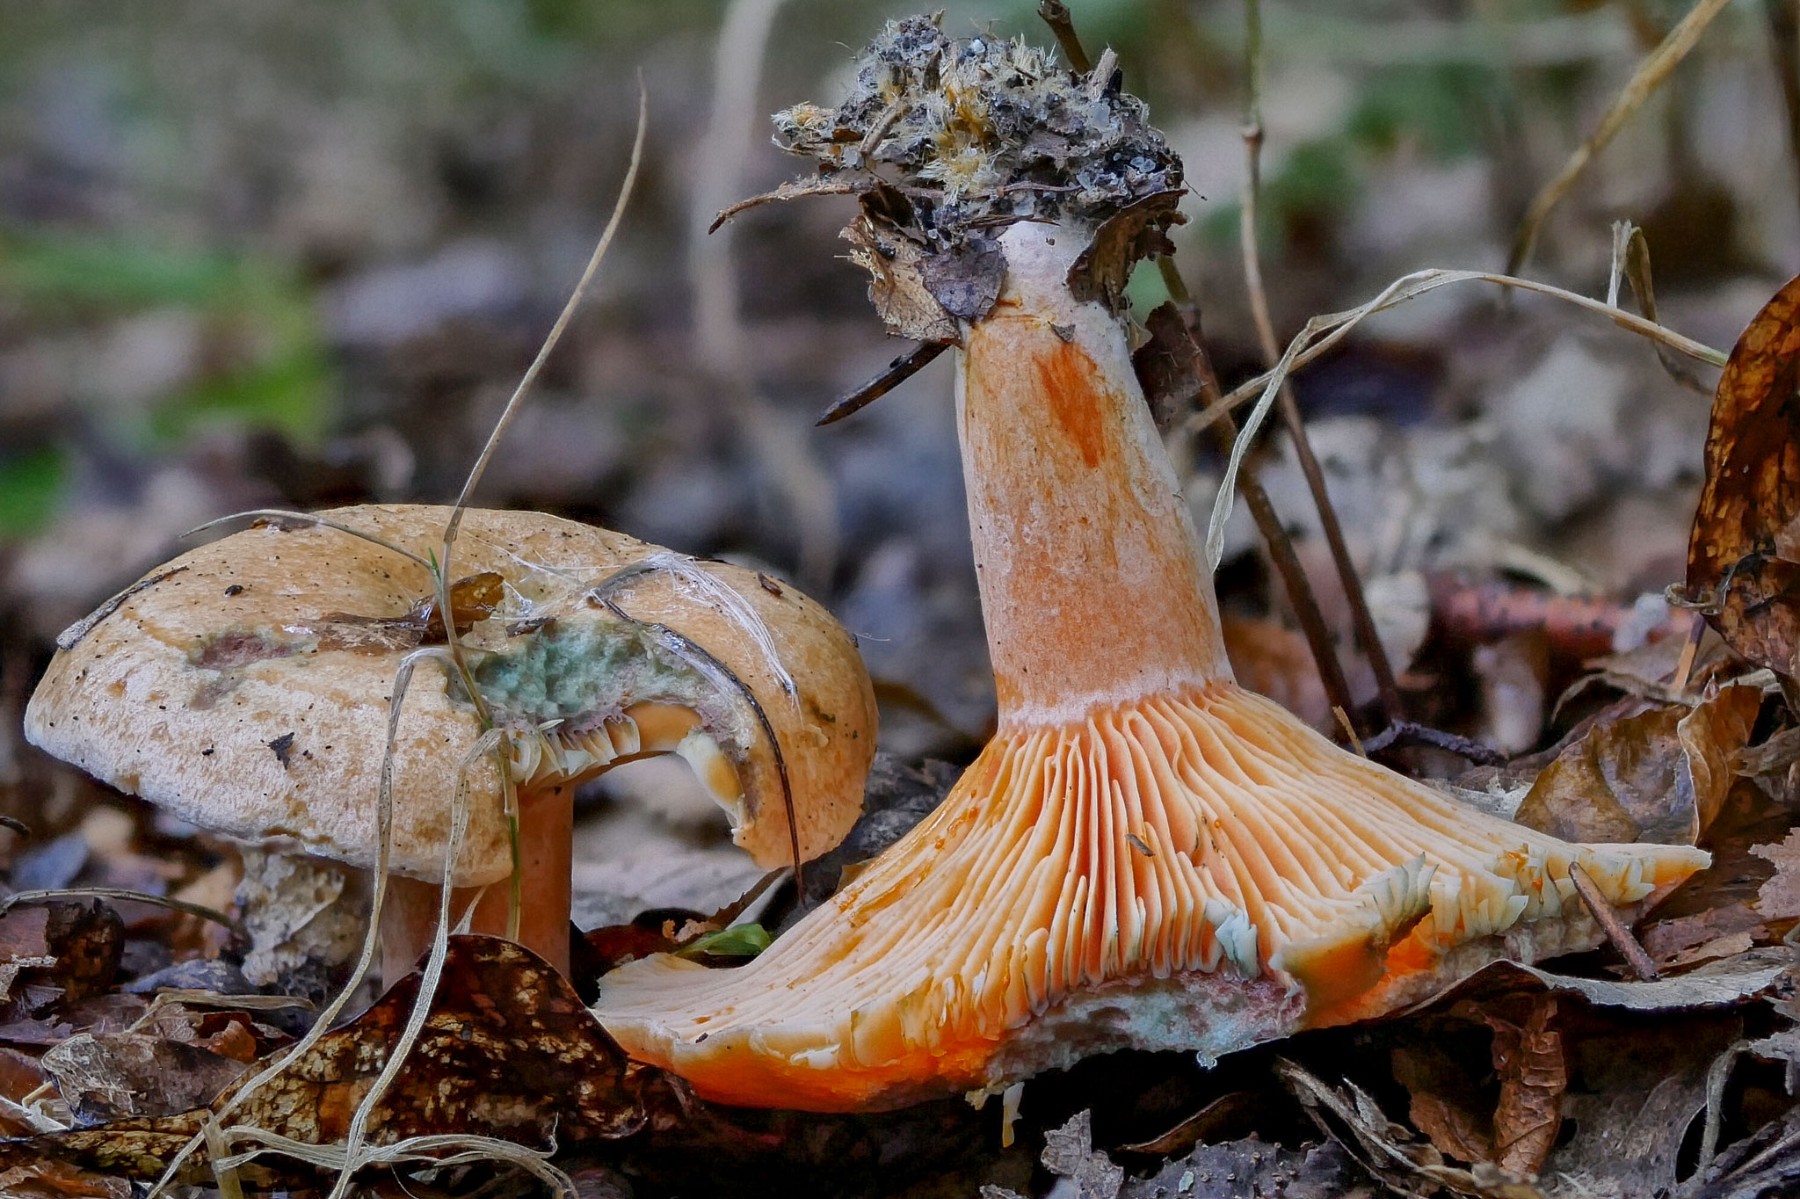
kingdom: Fungi
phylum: Basidiomycota
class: Agaricomycetes
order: Russulales
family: Russulaceae
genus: Lactarius
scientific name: Lactarius deterrimus
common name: gran-mælkehat
